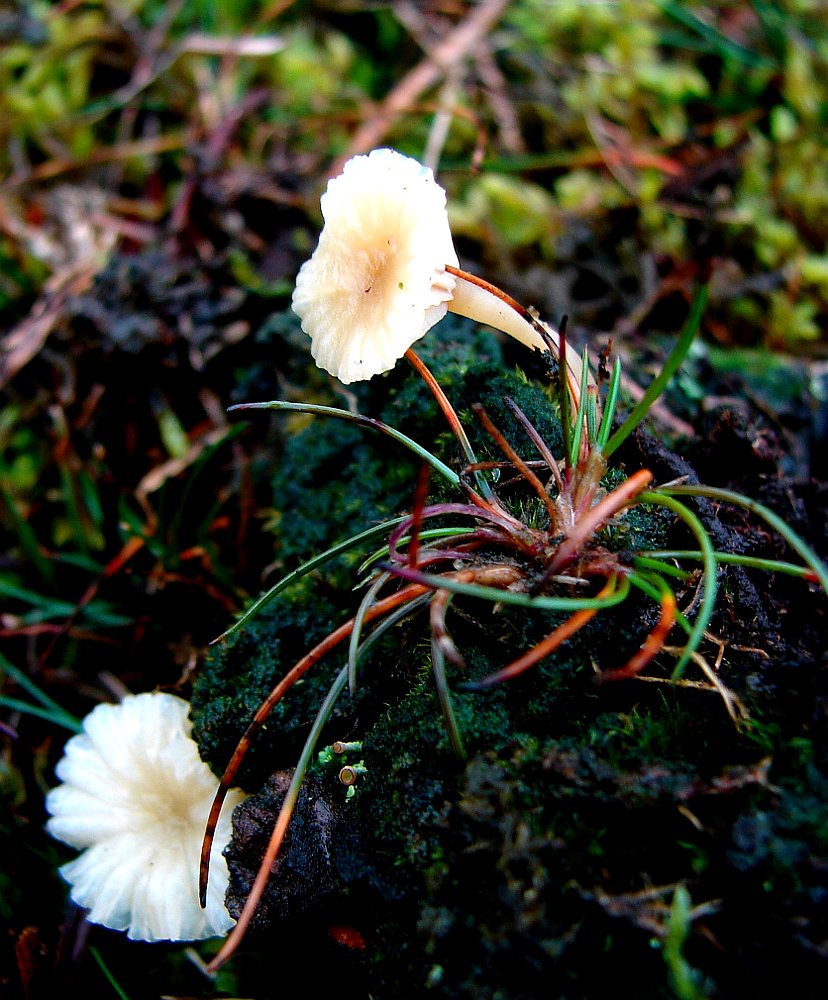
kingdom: Fungi
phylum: Basidiomycota
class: Agaricomycetes
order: Agaricales
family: Hygrophoraceae
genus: Lichenomphalia
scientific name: Lichenomphalia umbellifera
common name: tørve-lavhat
